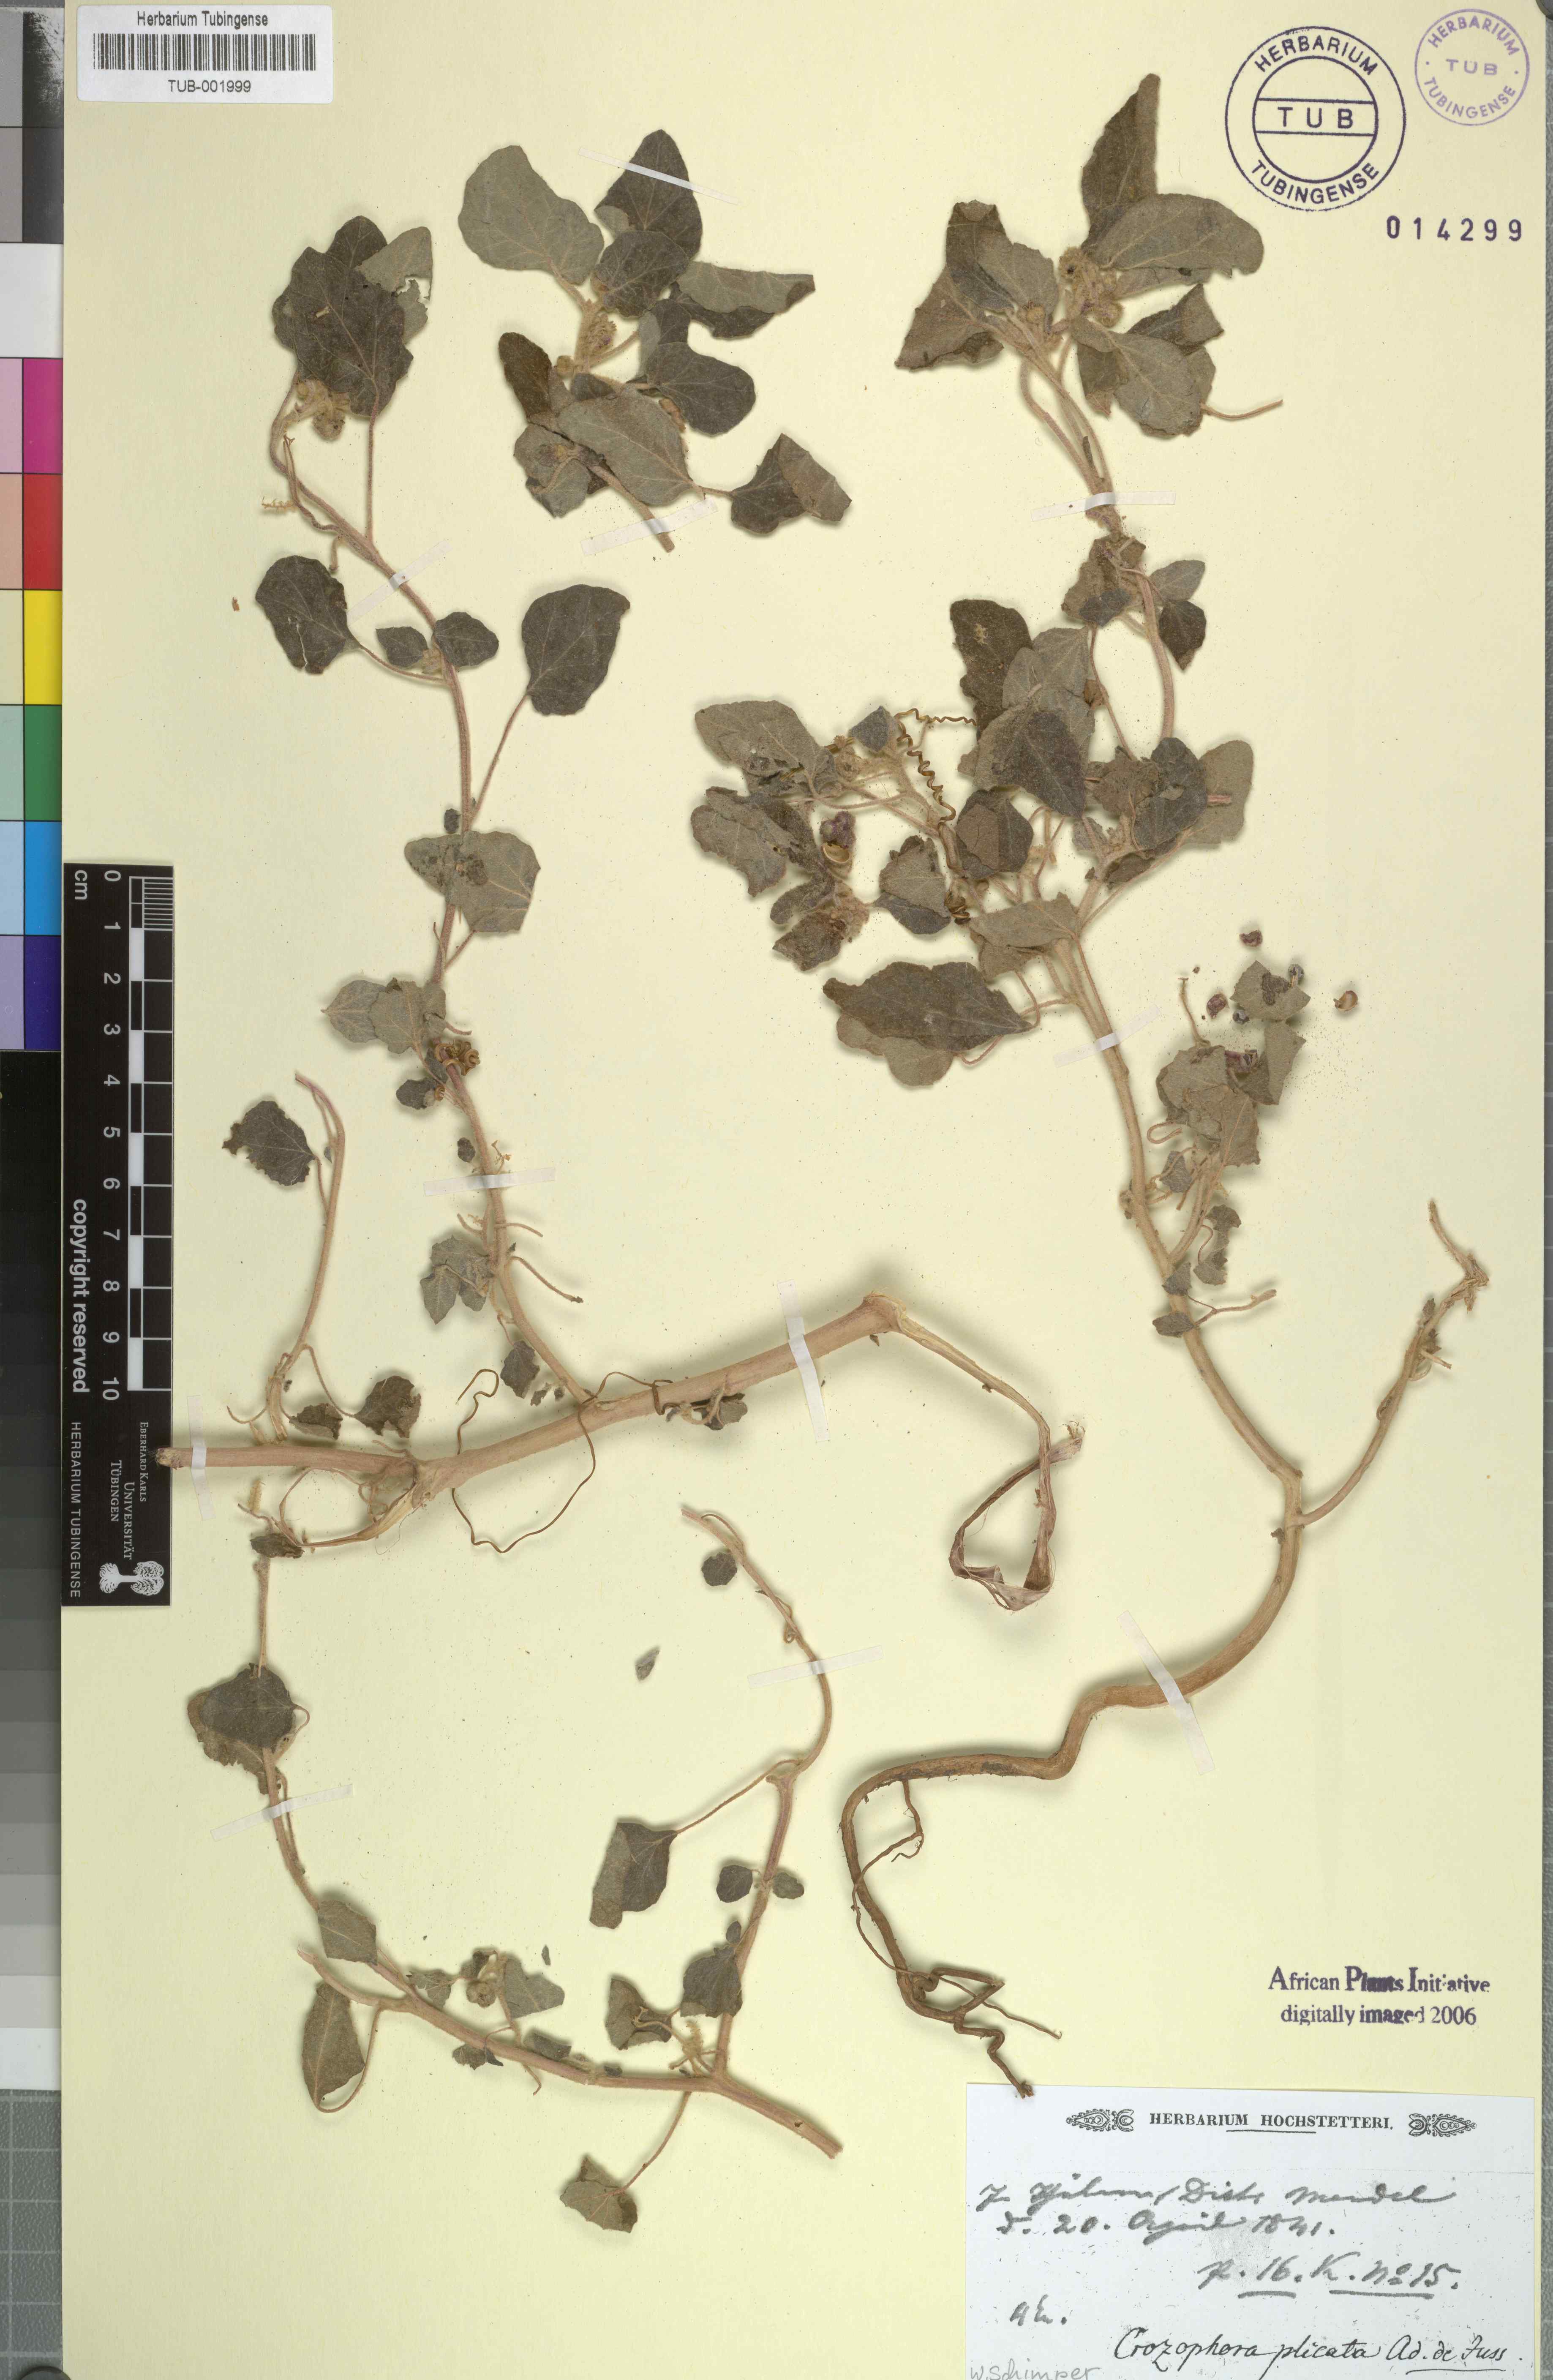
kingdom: Plantae
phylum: Tracheophyta
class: Magnoliopsida
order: Malpighiales
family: Euphorbiaceae
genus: Chrozophora
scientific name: Chrozophora plicata
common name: Giradol
